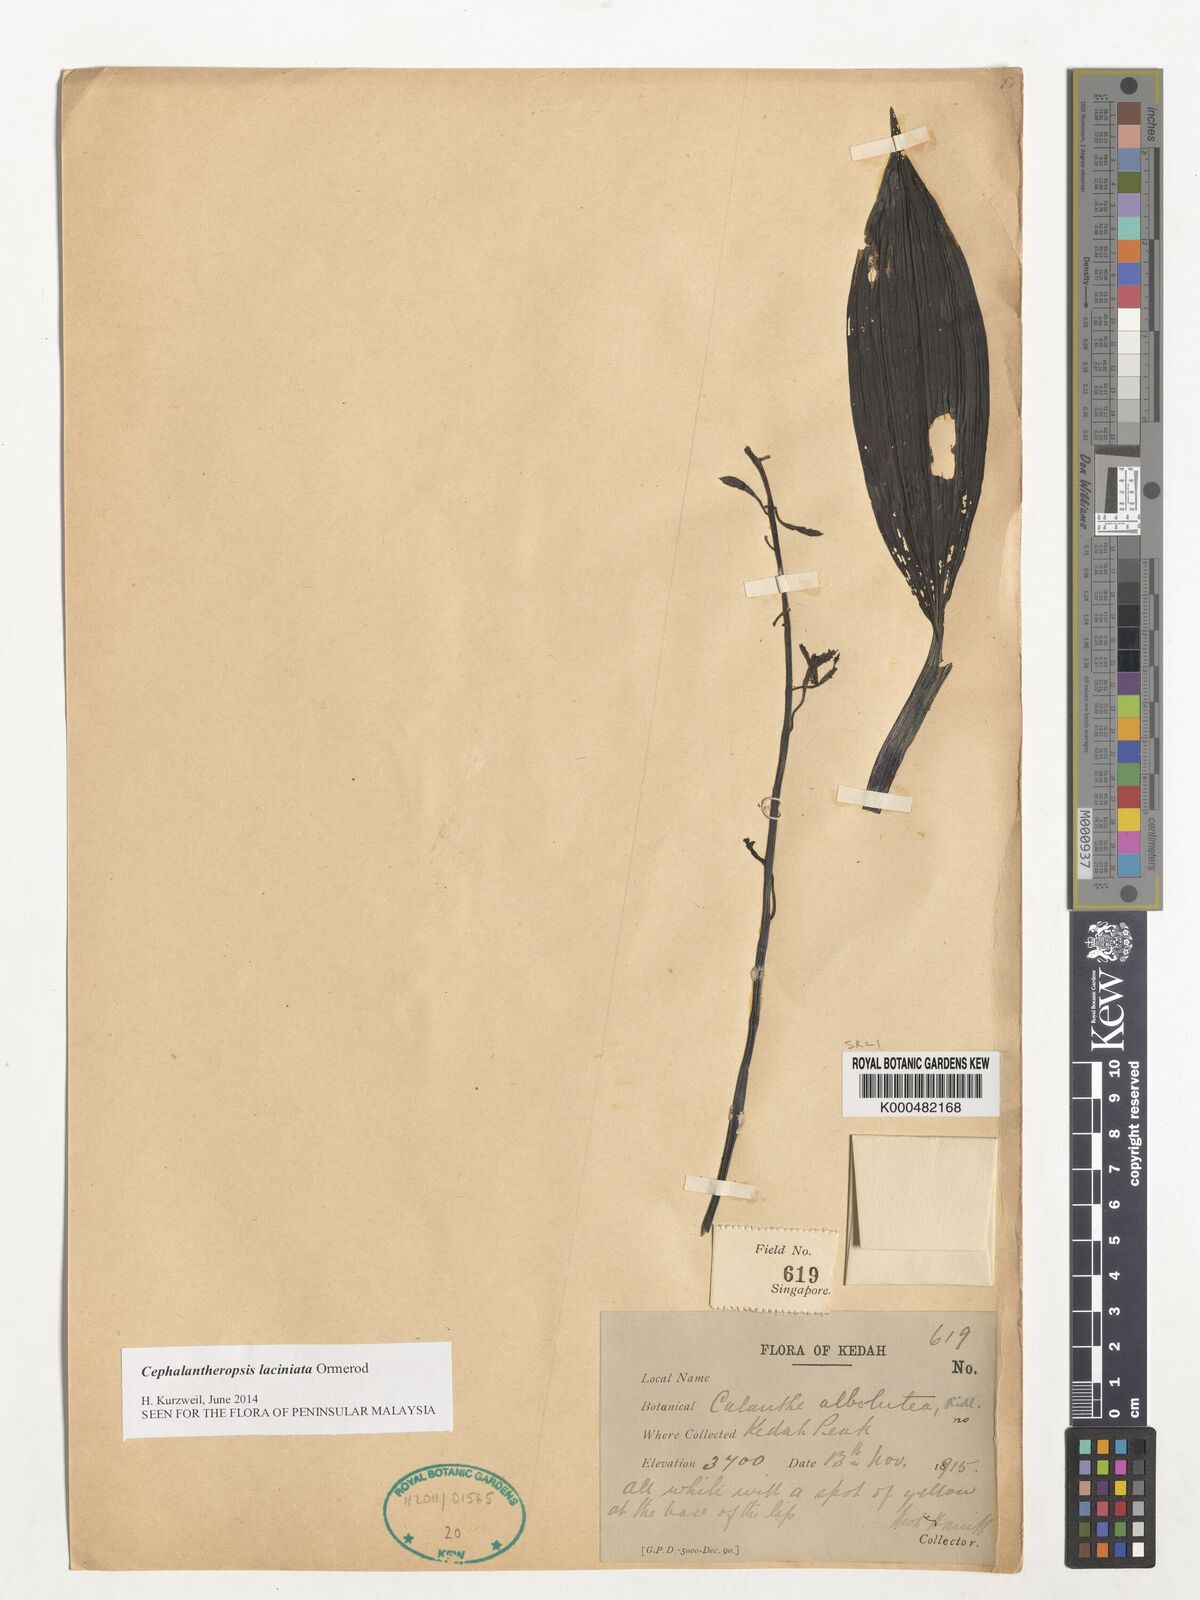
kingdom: Plantae
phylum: Tracheophyta
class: Liliopsida
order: Asparagales
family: Orchidaceae
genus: Calanthe
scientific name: Calanthe albolutea
